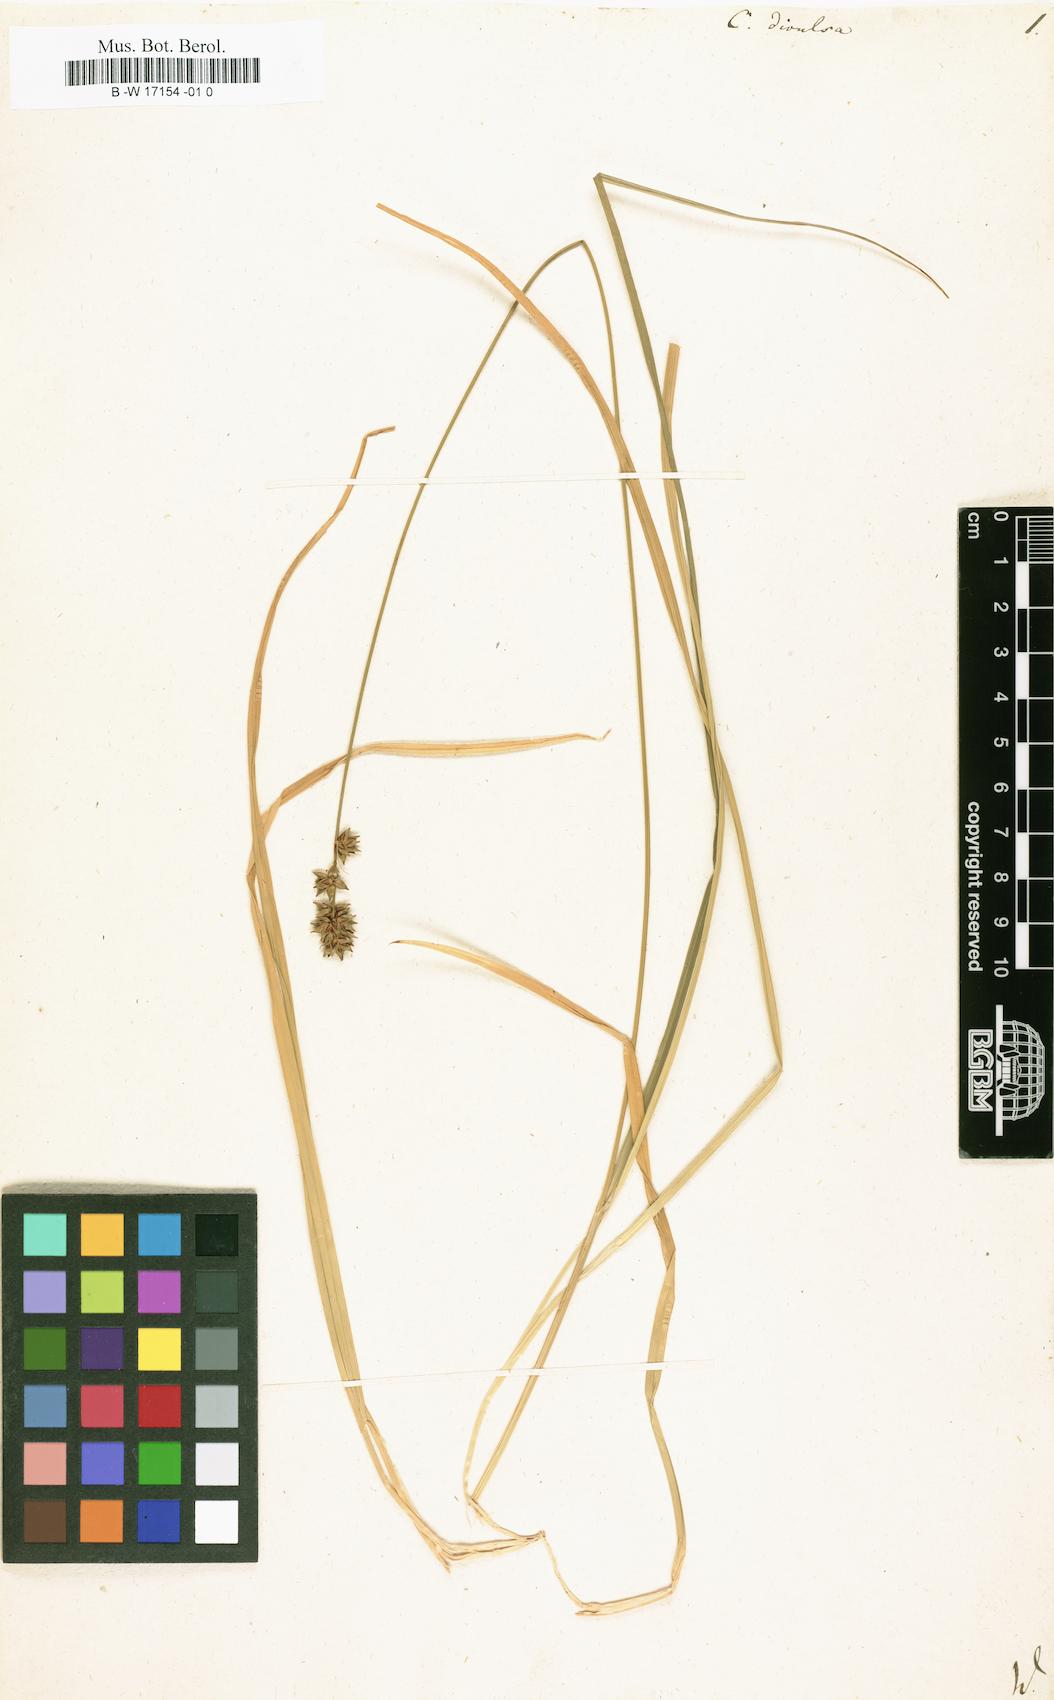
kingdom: Plantae
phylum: Tracheophyta
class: Liliopsida
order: Poales
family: Cyperaceae
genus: Carex
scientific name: Carex divulsa
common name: Grassland sedge
